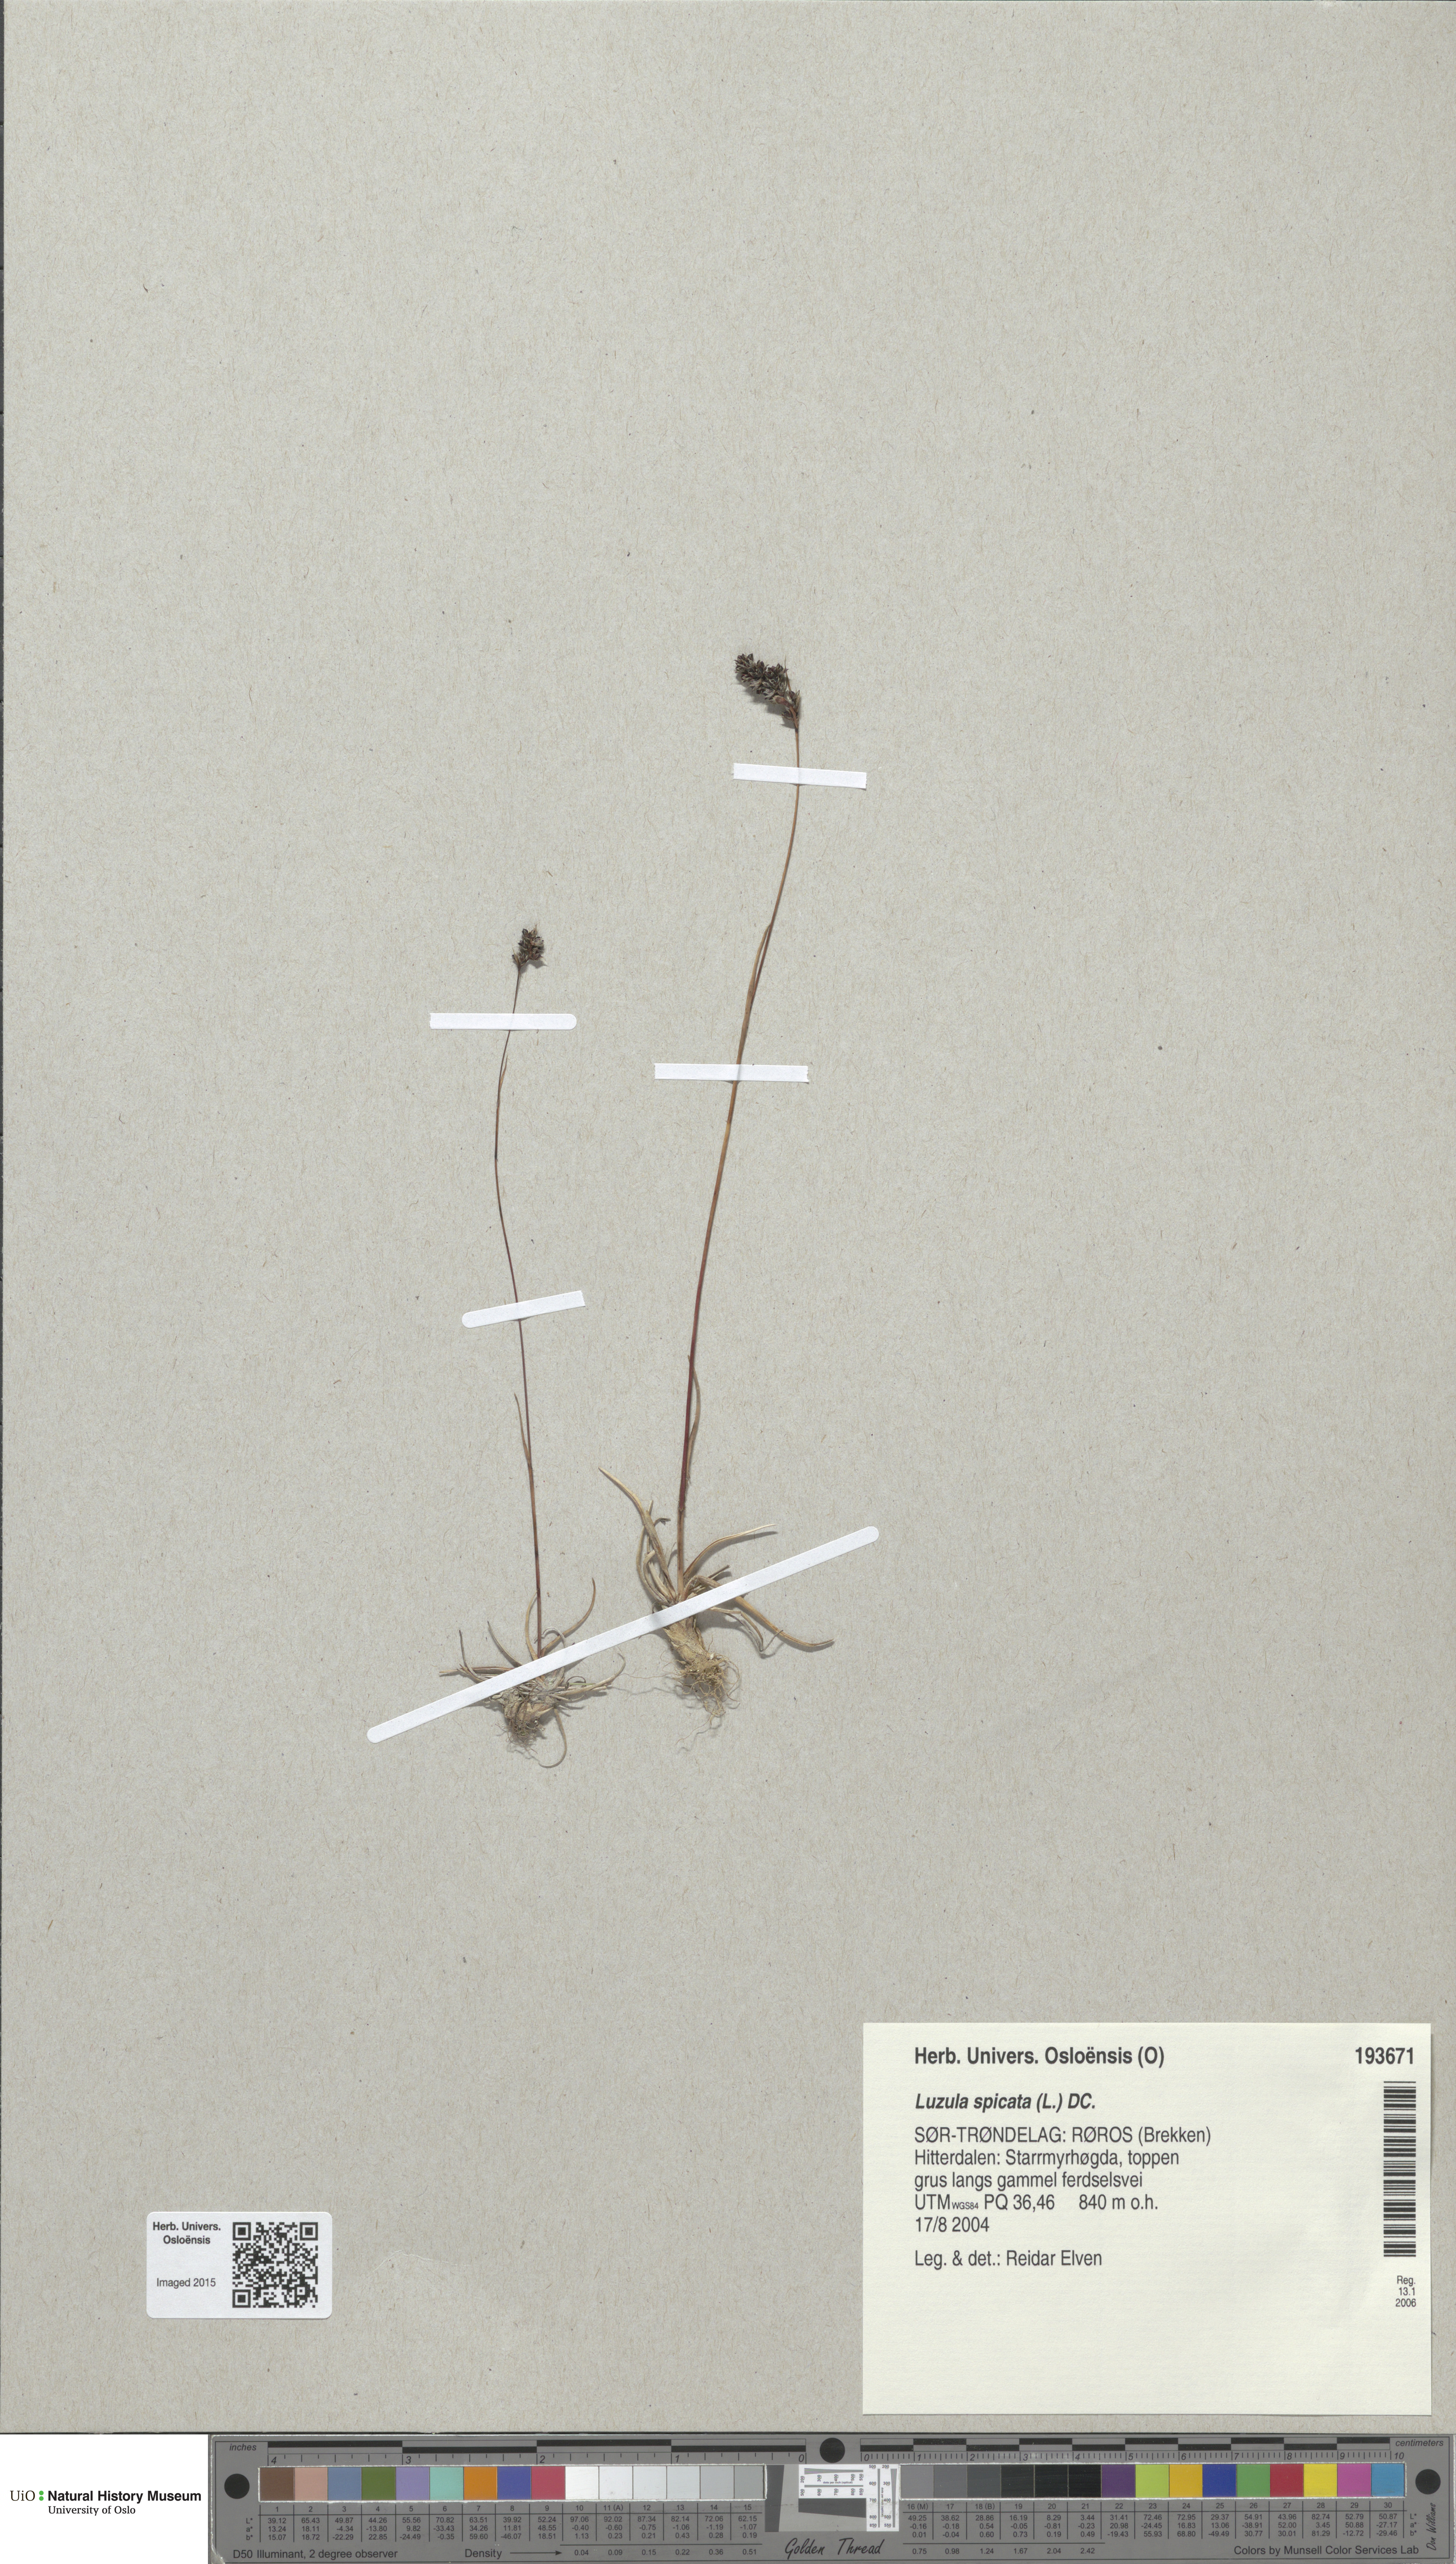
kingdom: Plantae
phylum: Tracheophyta
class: Liliopsida
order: Poales
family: Juncaceae
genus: Luzula
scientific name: Luzula spicata
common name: Spiked wood-rush
